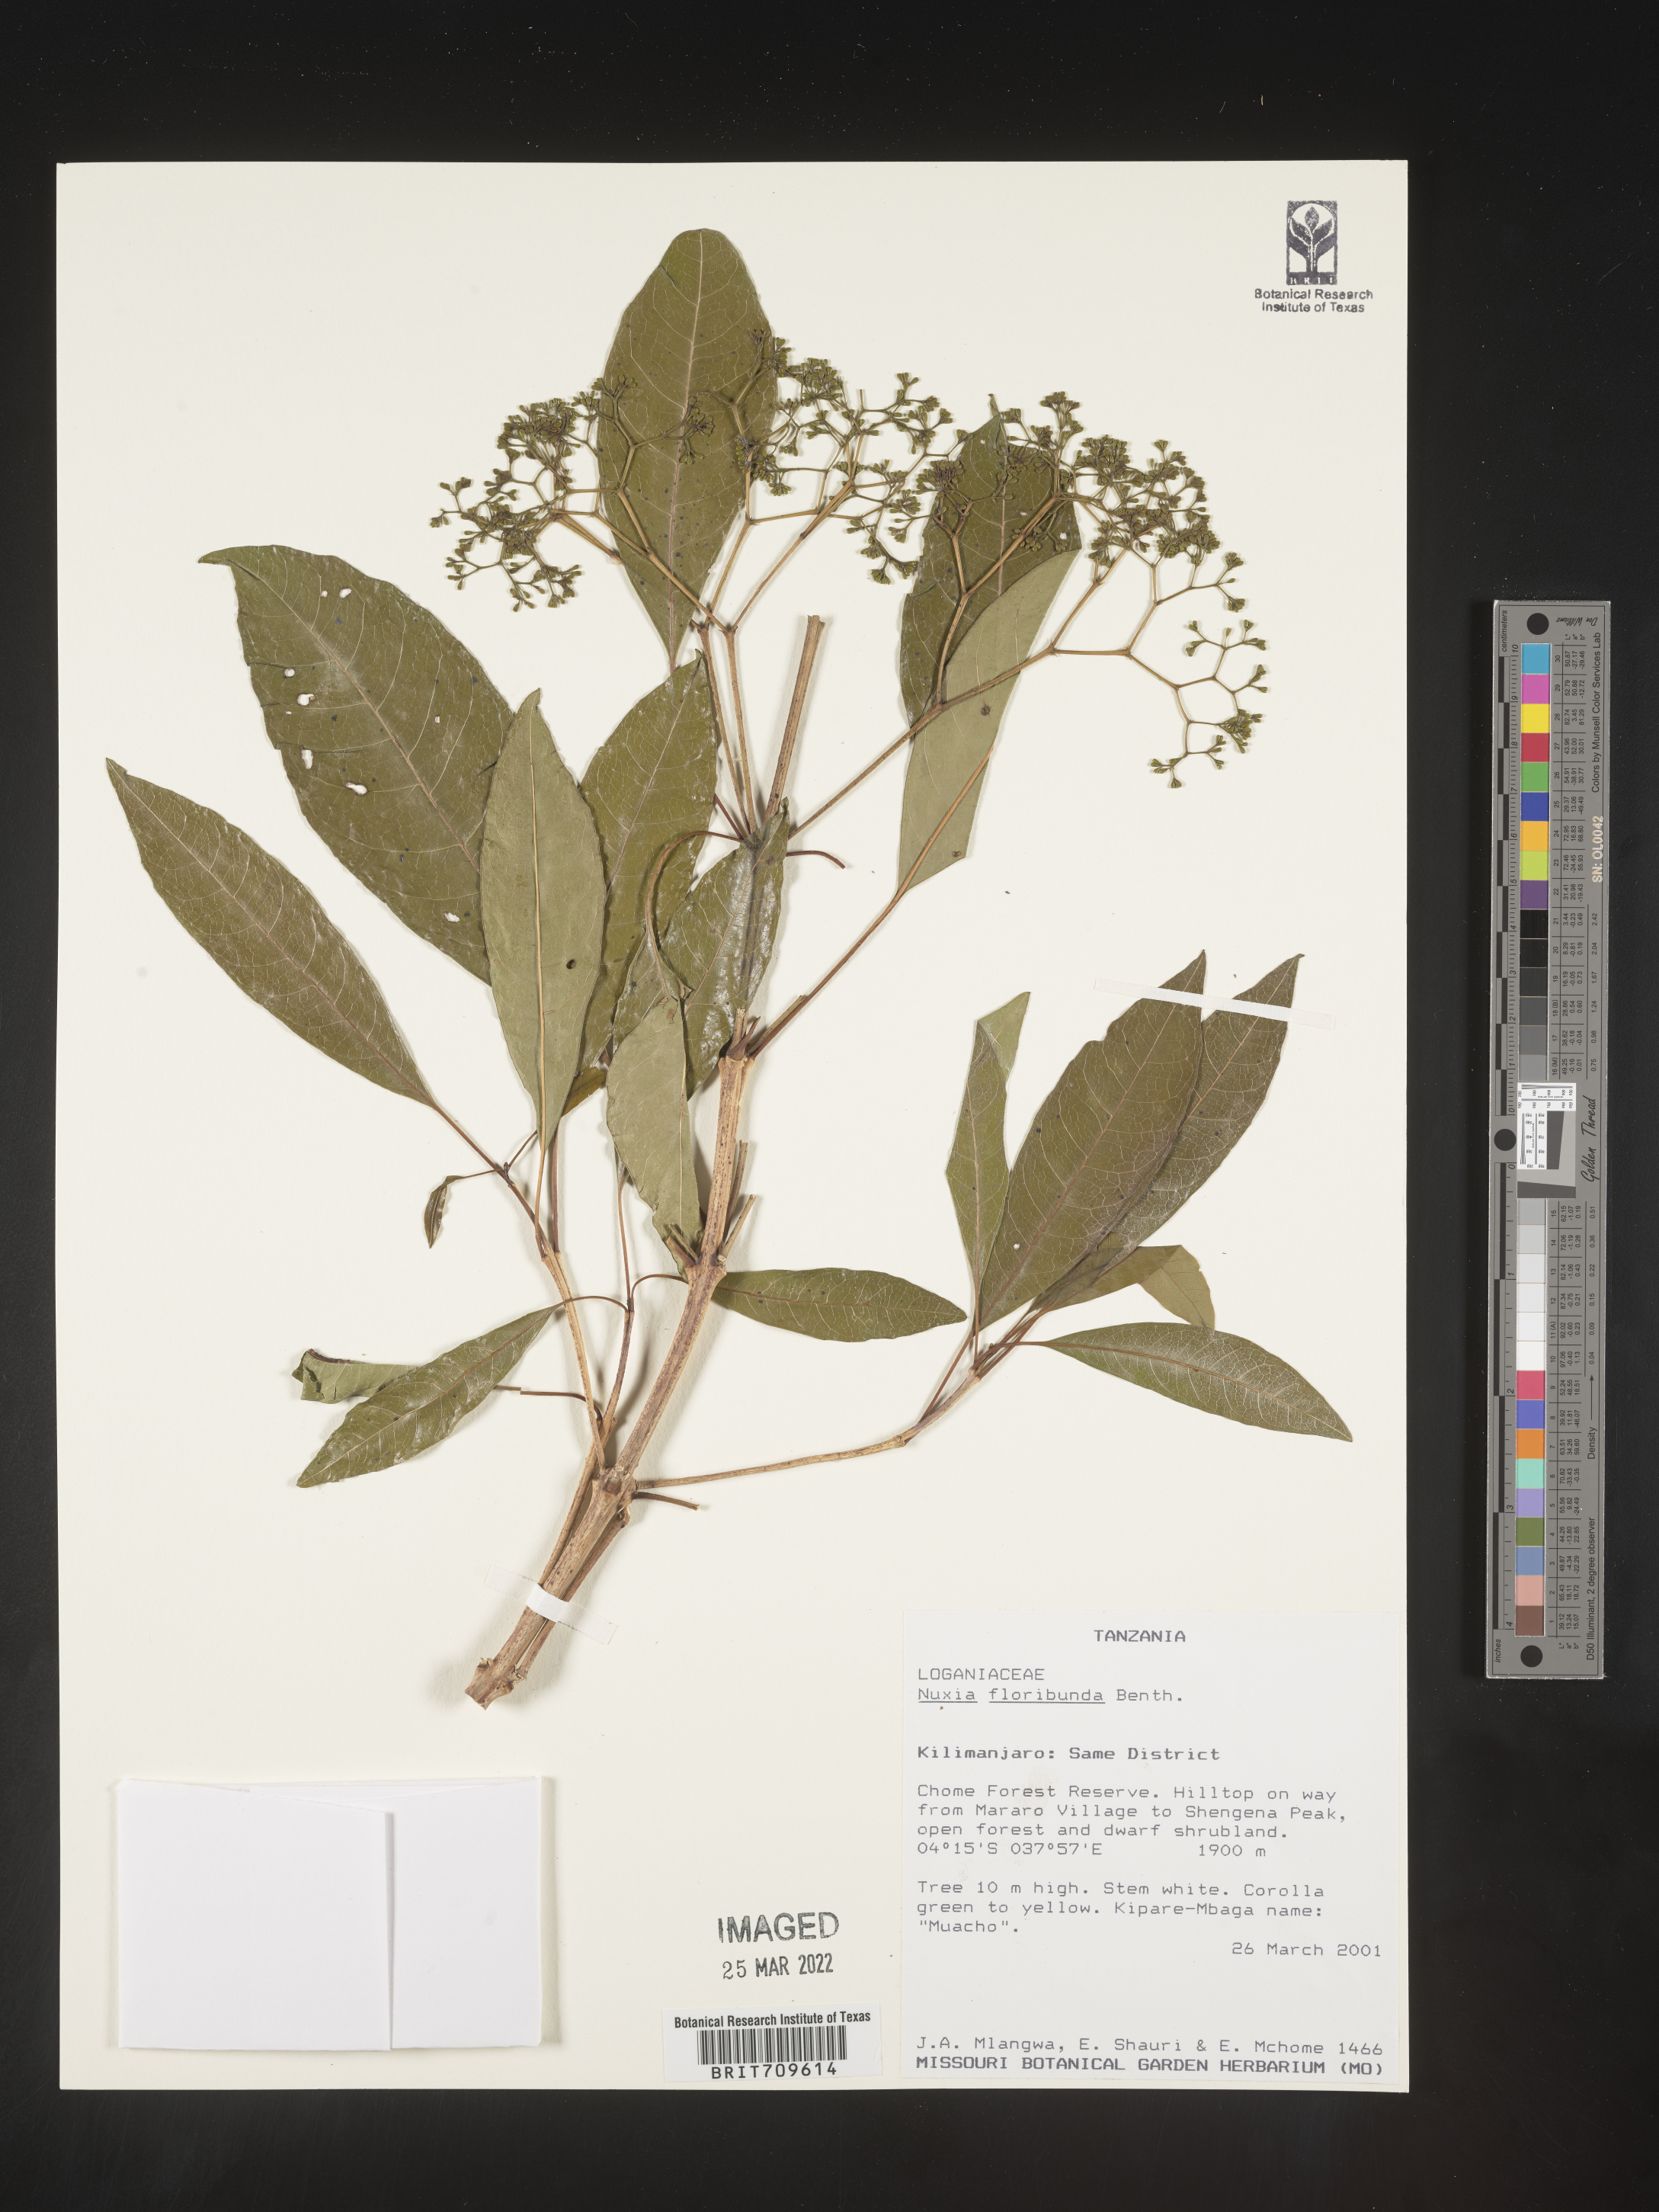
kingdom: Plantae
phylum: Tracheophyta
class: Magnoliopsida
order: Lamiales
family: Stilbaceae
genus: Nuxia
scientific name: Nuxia
